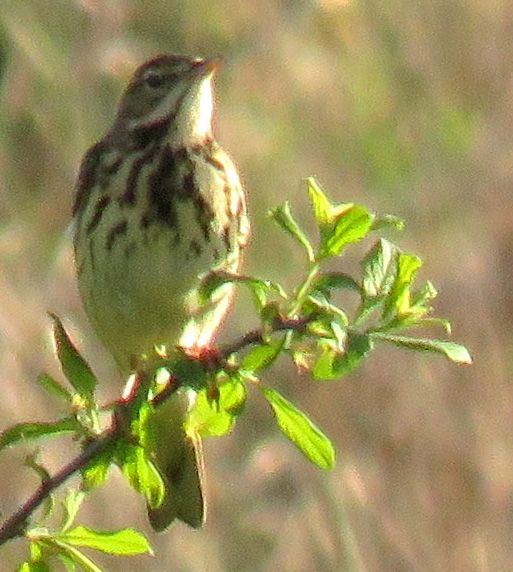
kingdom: Animalia
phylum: Chordata
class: Aves
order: Passeriformes
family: Motacillidae
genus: Anthus
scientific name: Anthus trivialis
